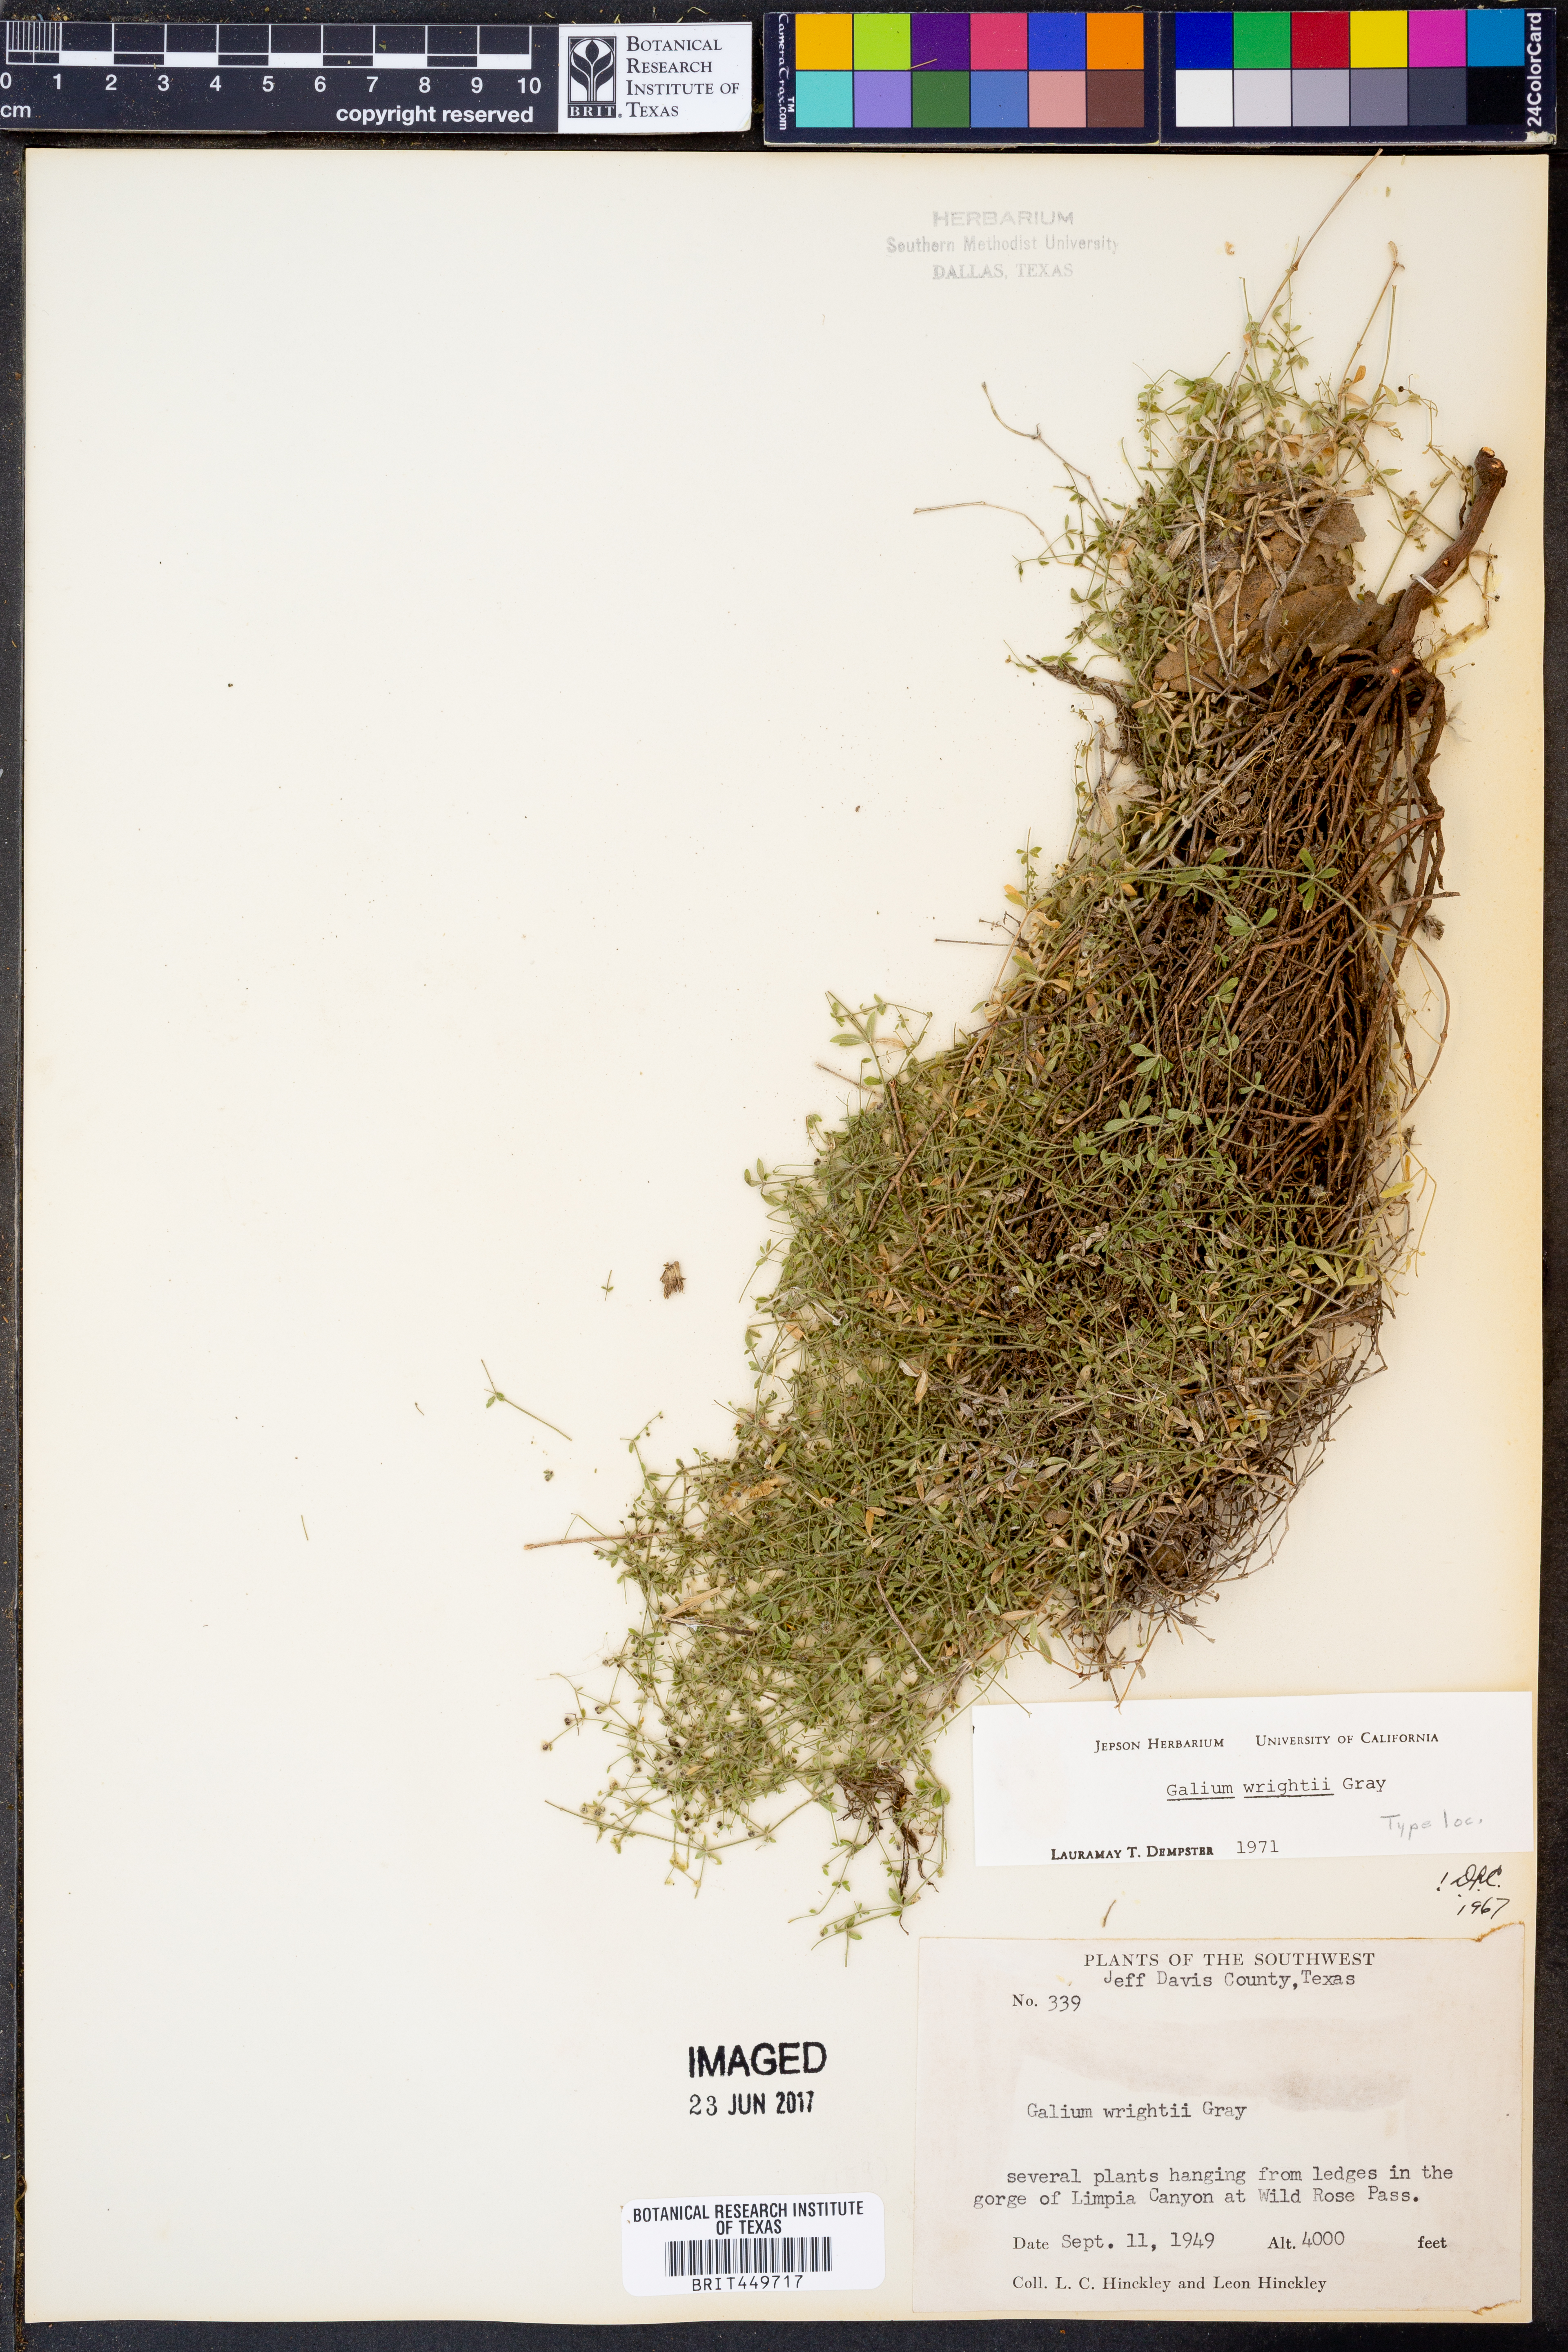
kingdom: Plantae
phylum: Tracheophyta
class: Magnoliopsida
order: Gentianales
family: Rubiaceae
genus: Galium
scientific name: Galium wrightii
